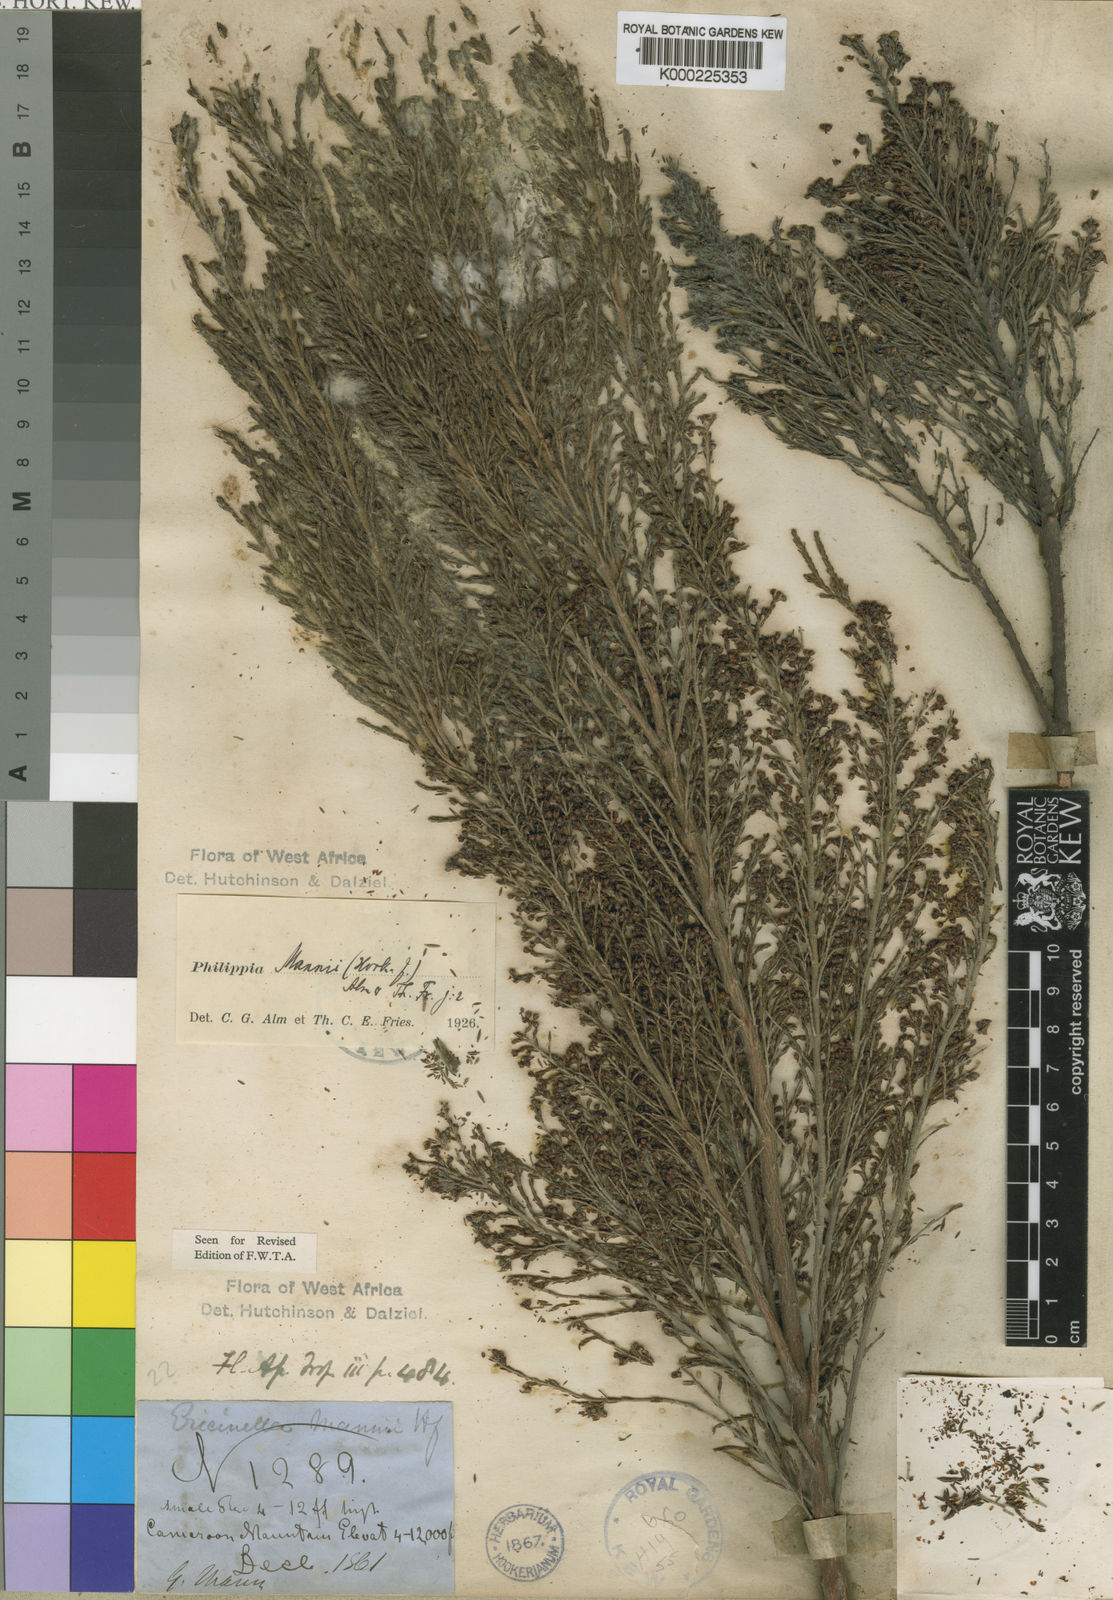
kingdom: Plantae
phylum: Tracheophyta
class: Magnoliopsida
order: Ericales
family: Ericaceae
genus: Erica
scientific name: Erica mannii
